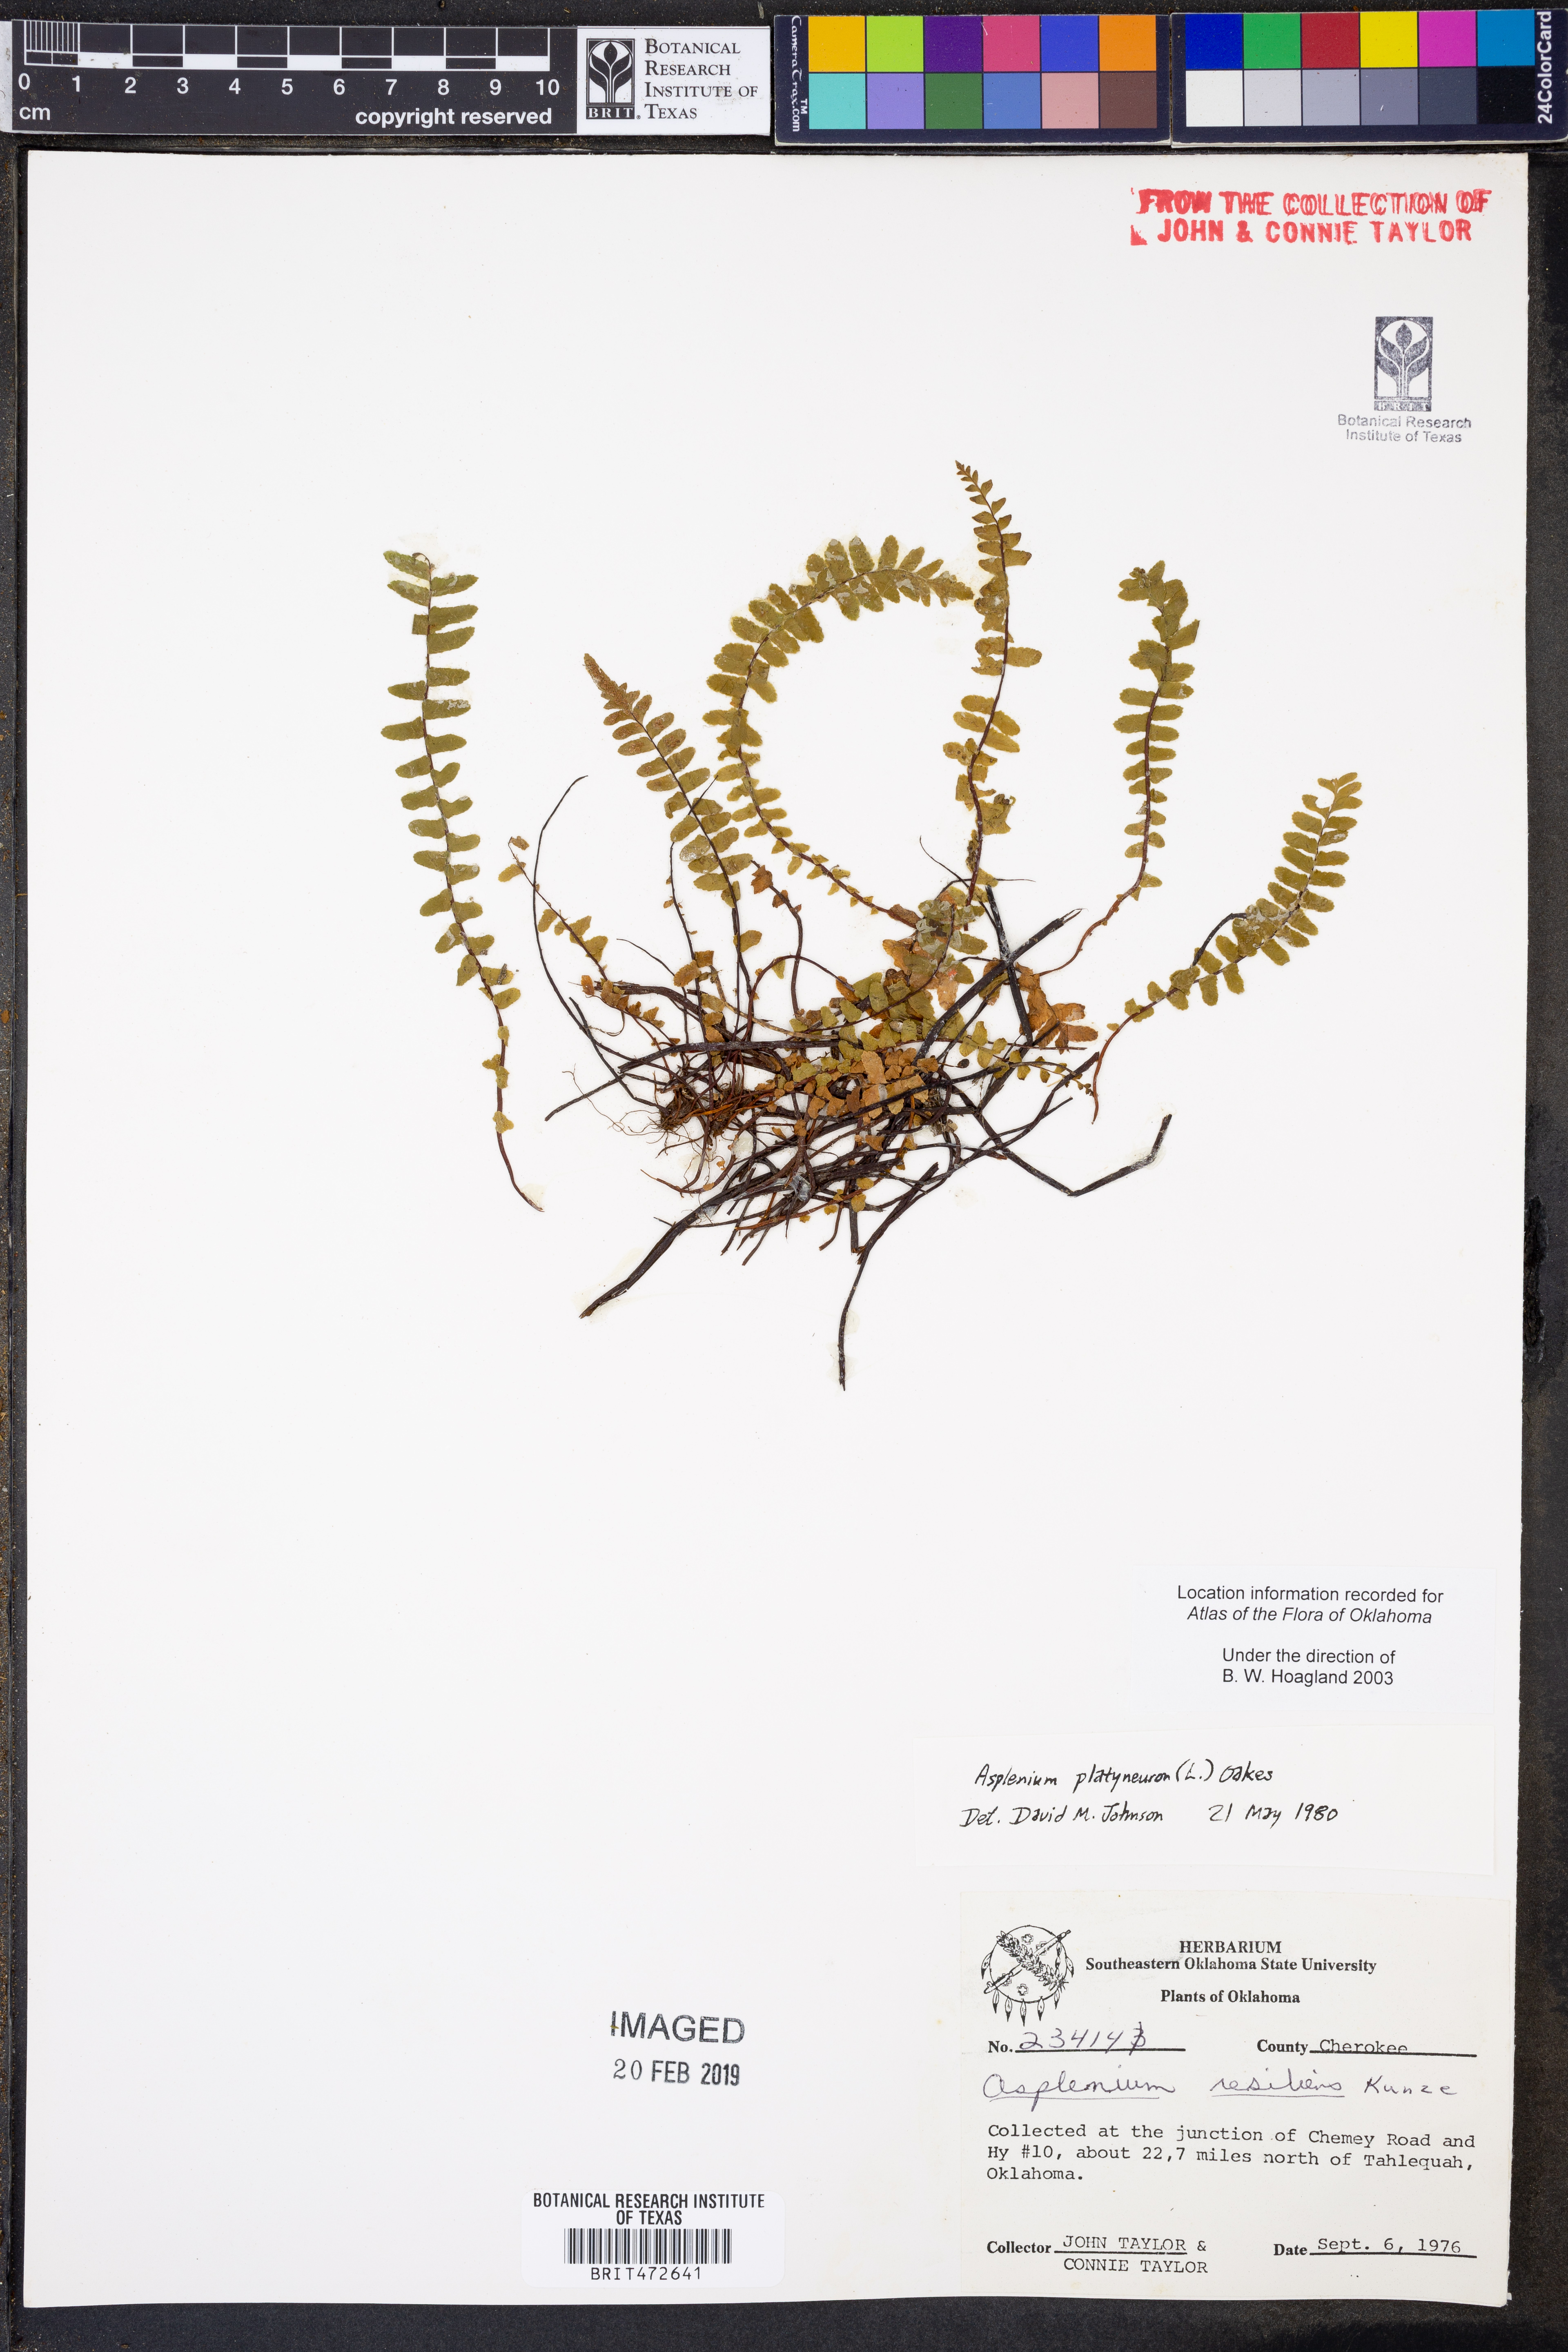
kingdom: Plantae
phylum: Tracheophyta
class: Polypodiopsida
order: Polypodiales
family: Aspleniaceae
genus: Asplenium
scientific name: Asplenium platyneuron
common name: Ebony spleenwort
